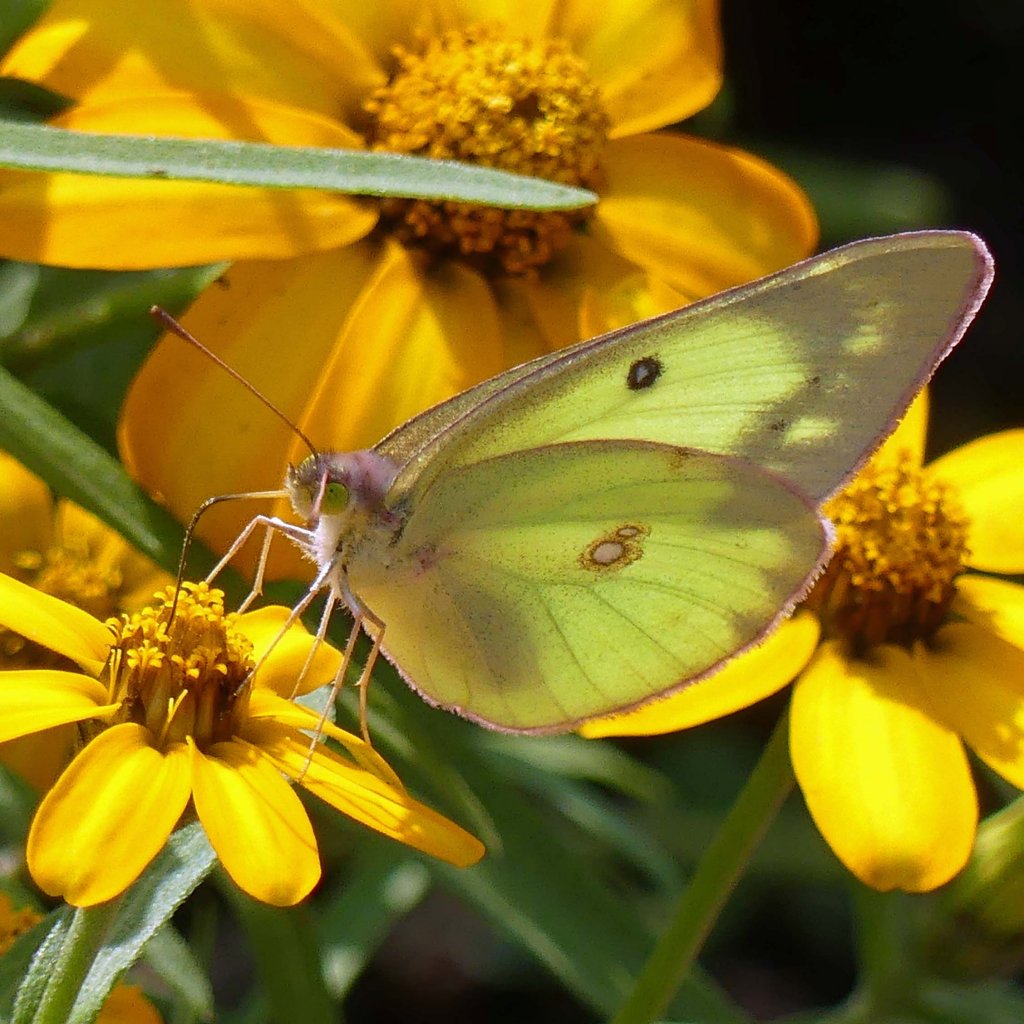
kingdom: Animalia
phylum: Arthropoda
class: Insecta
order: Lepidoptera
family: Pieridae
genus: Colias
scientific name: Colias philodice
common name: Clouded Sulphur
